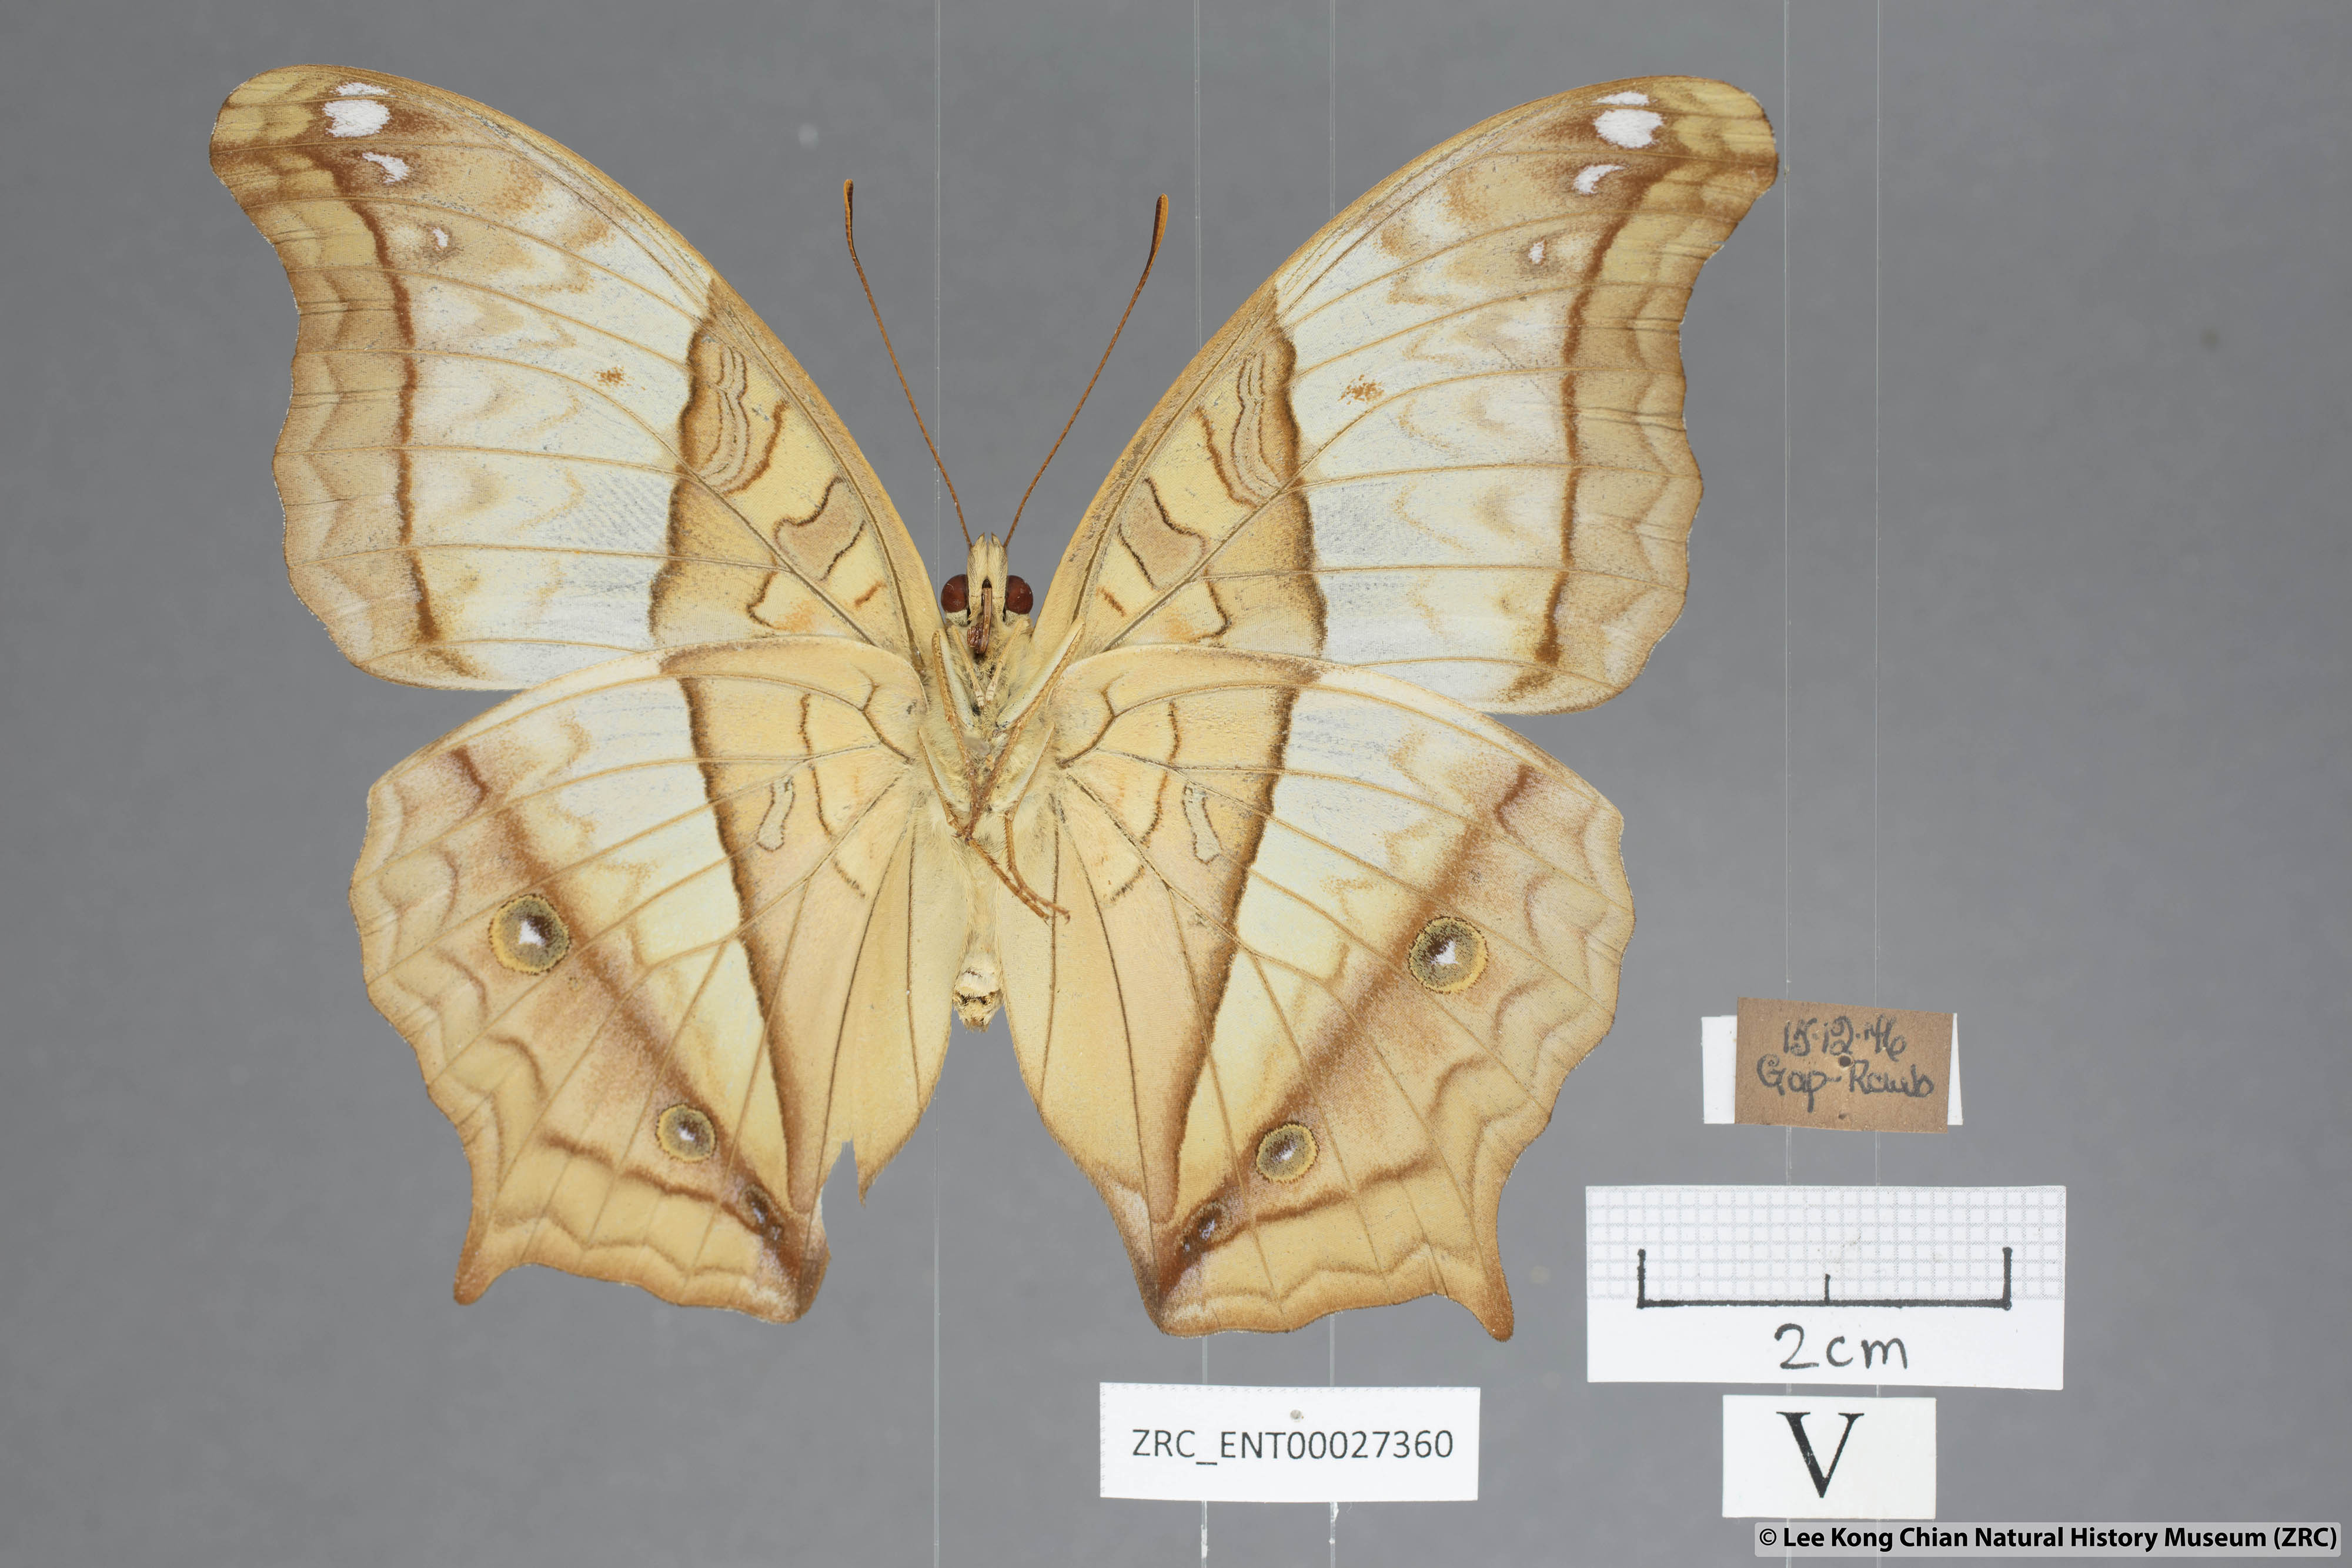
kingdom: Animalia
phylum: Arthropoda
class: Insecta
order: Lepidoptera
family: Nymphalidae
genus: Vindula
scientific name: Vindula erota
